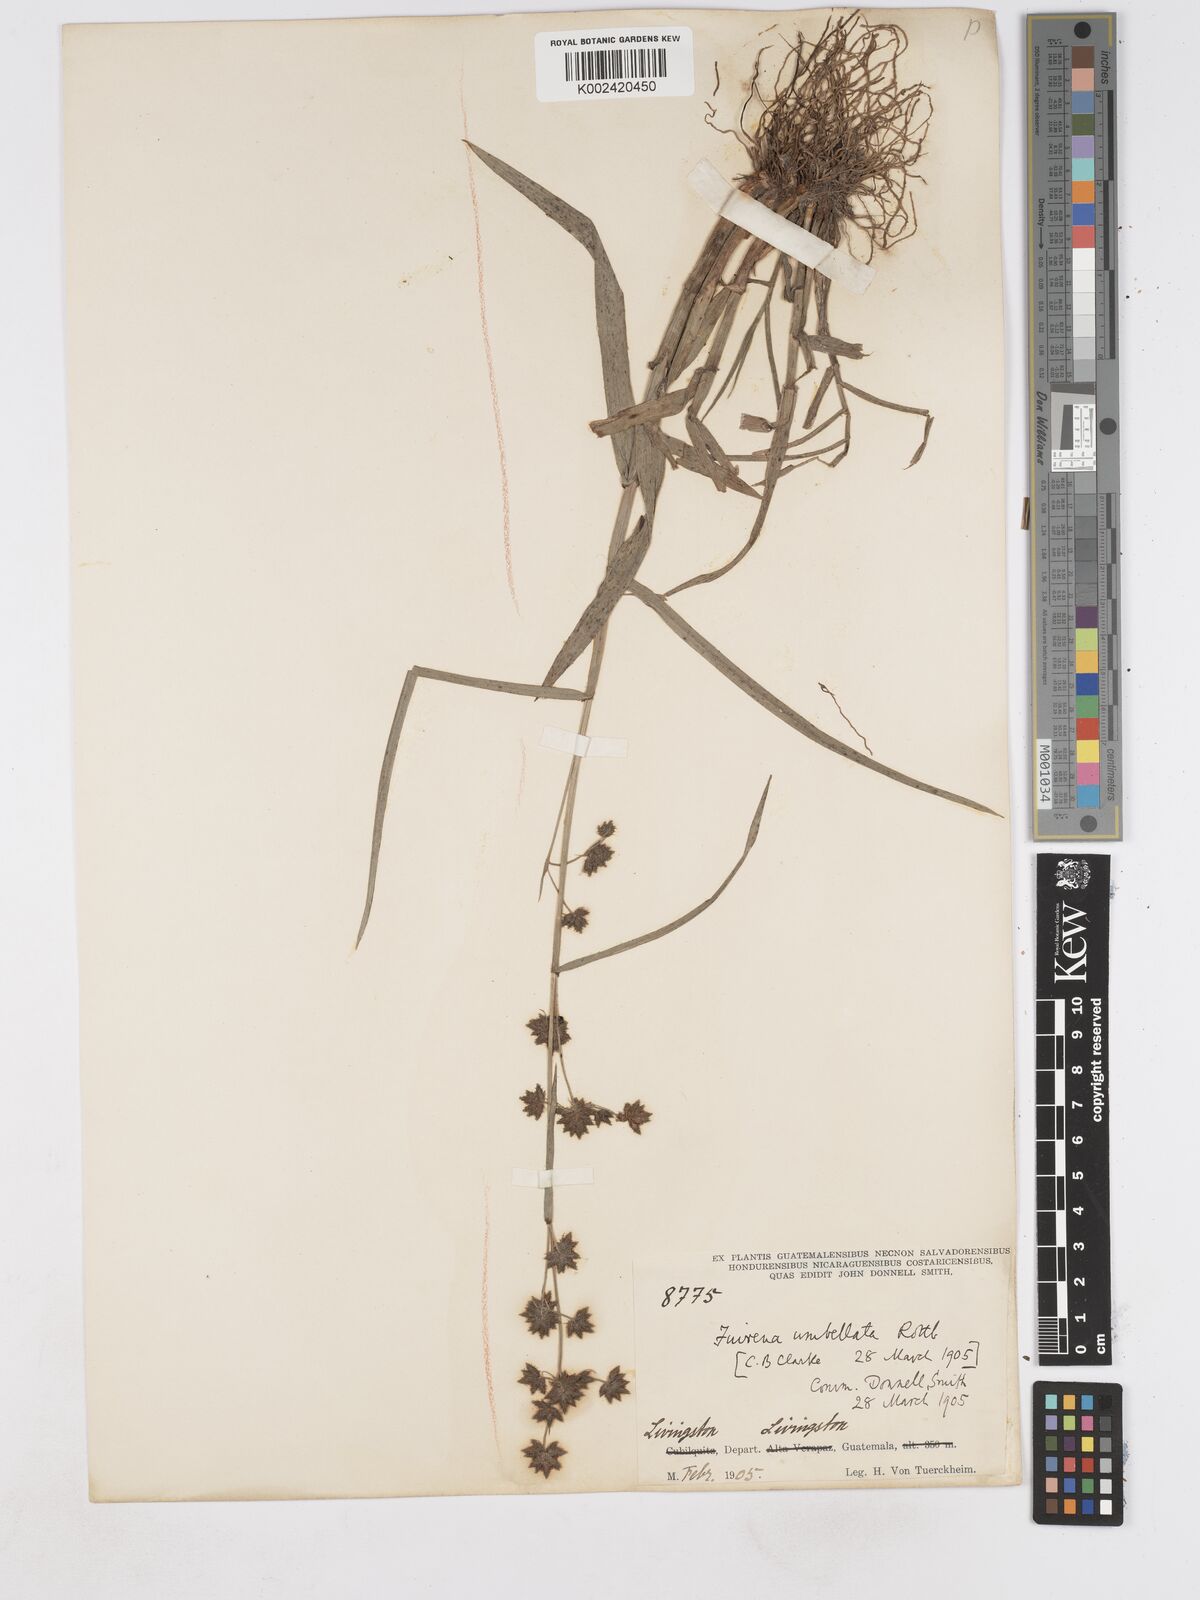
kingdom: Plantae
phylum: Tracheophyta
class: Liliopsida
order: Poales
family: Cyperaceae
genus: Fuirena
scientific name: Fuirena umbellata
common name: Yefen
